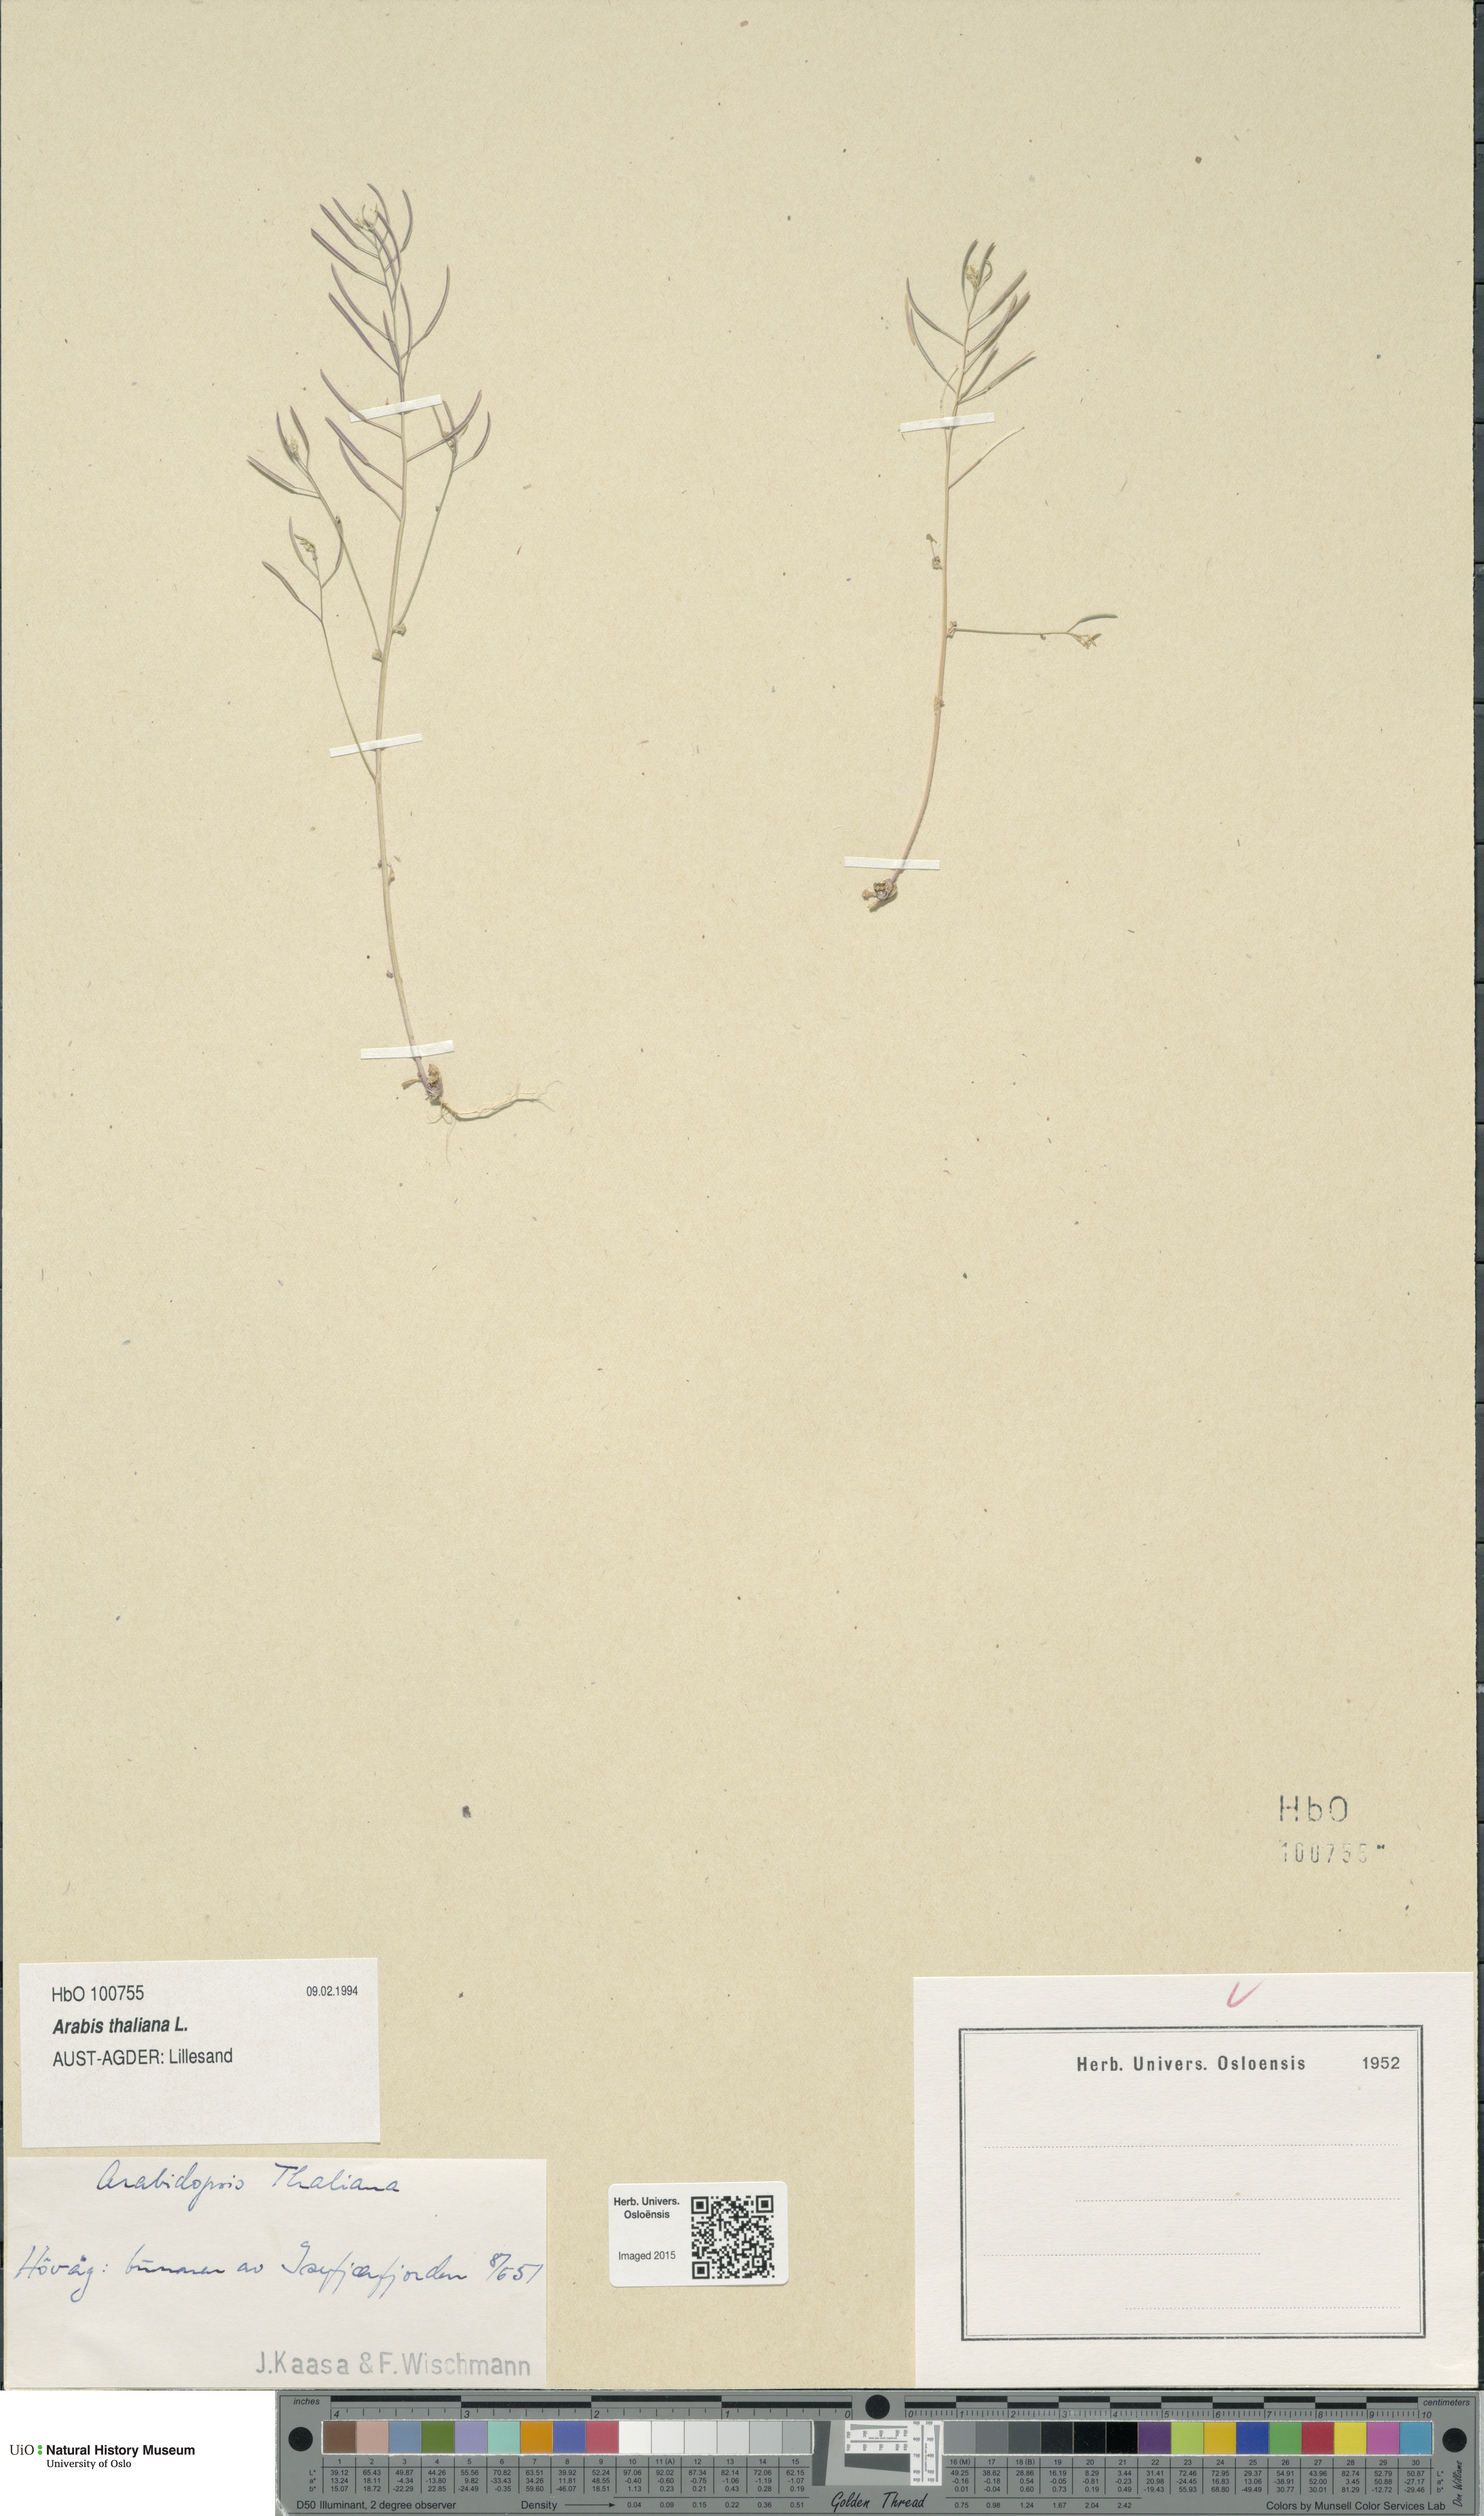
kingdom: Plantae
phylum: Tracheophyta
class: Magnoliopsida
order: Brassicales
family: Brassicaceae
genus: Arabidopsis
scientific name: Arabidopsis thaliana
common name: Thale cress
